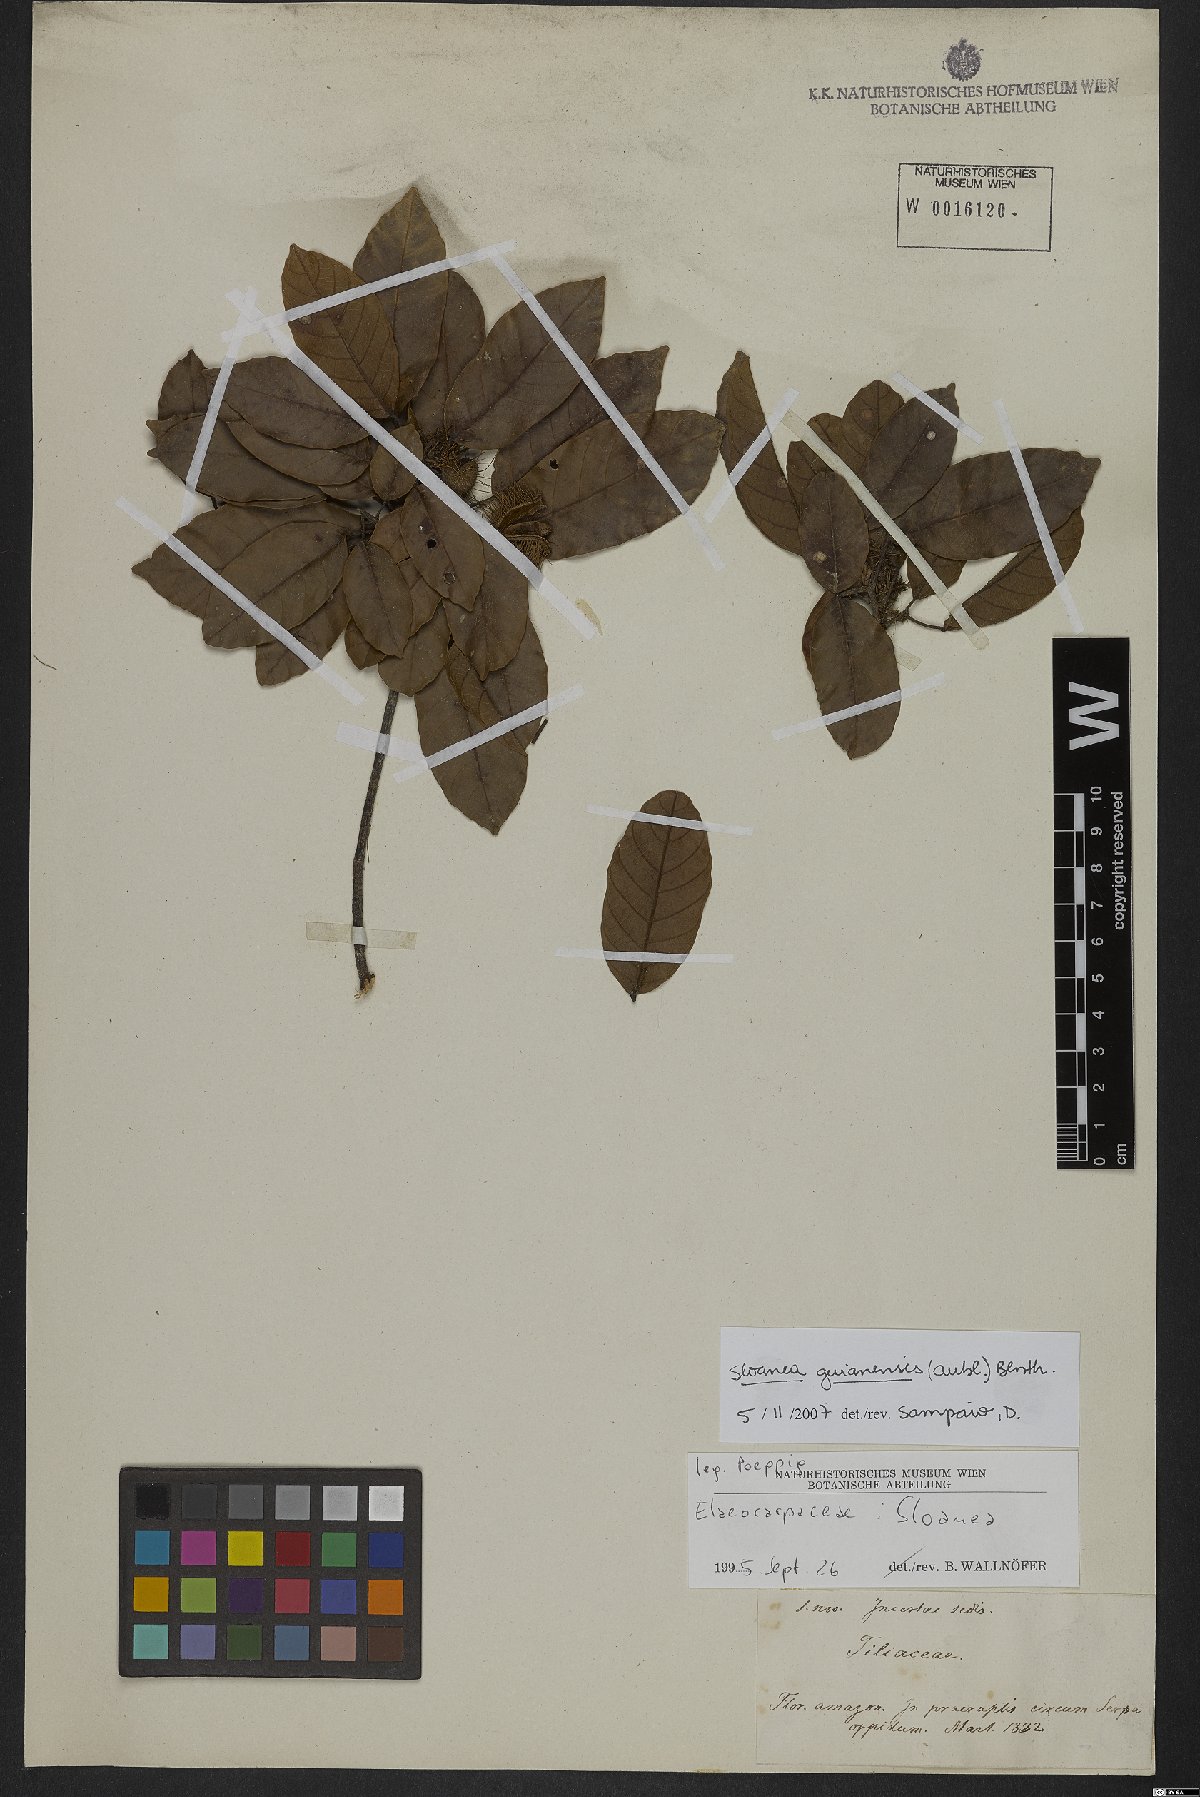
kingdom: Plantae
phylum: Tracheophyta
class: Magnoliopsida
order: Oxalidales
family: Elaeocarpaceae
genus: Sloanea
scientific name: Sloanea guianensis
